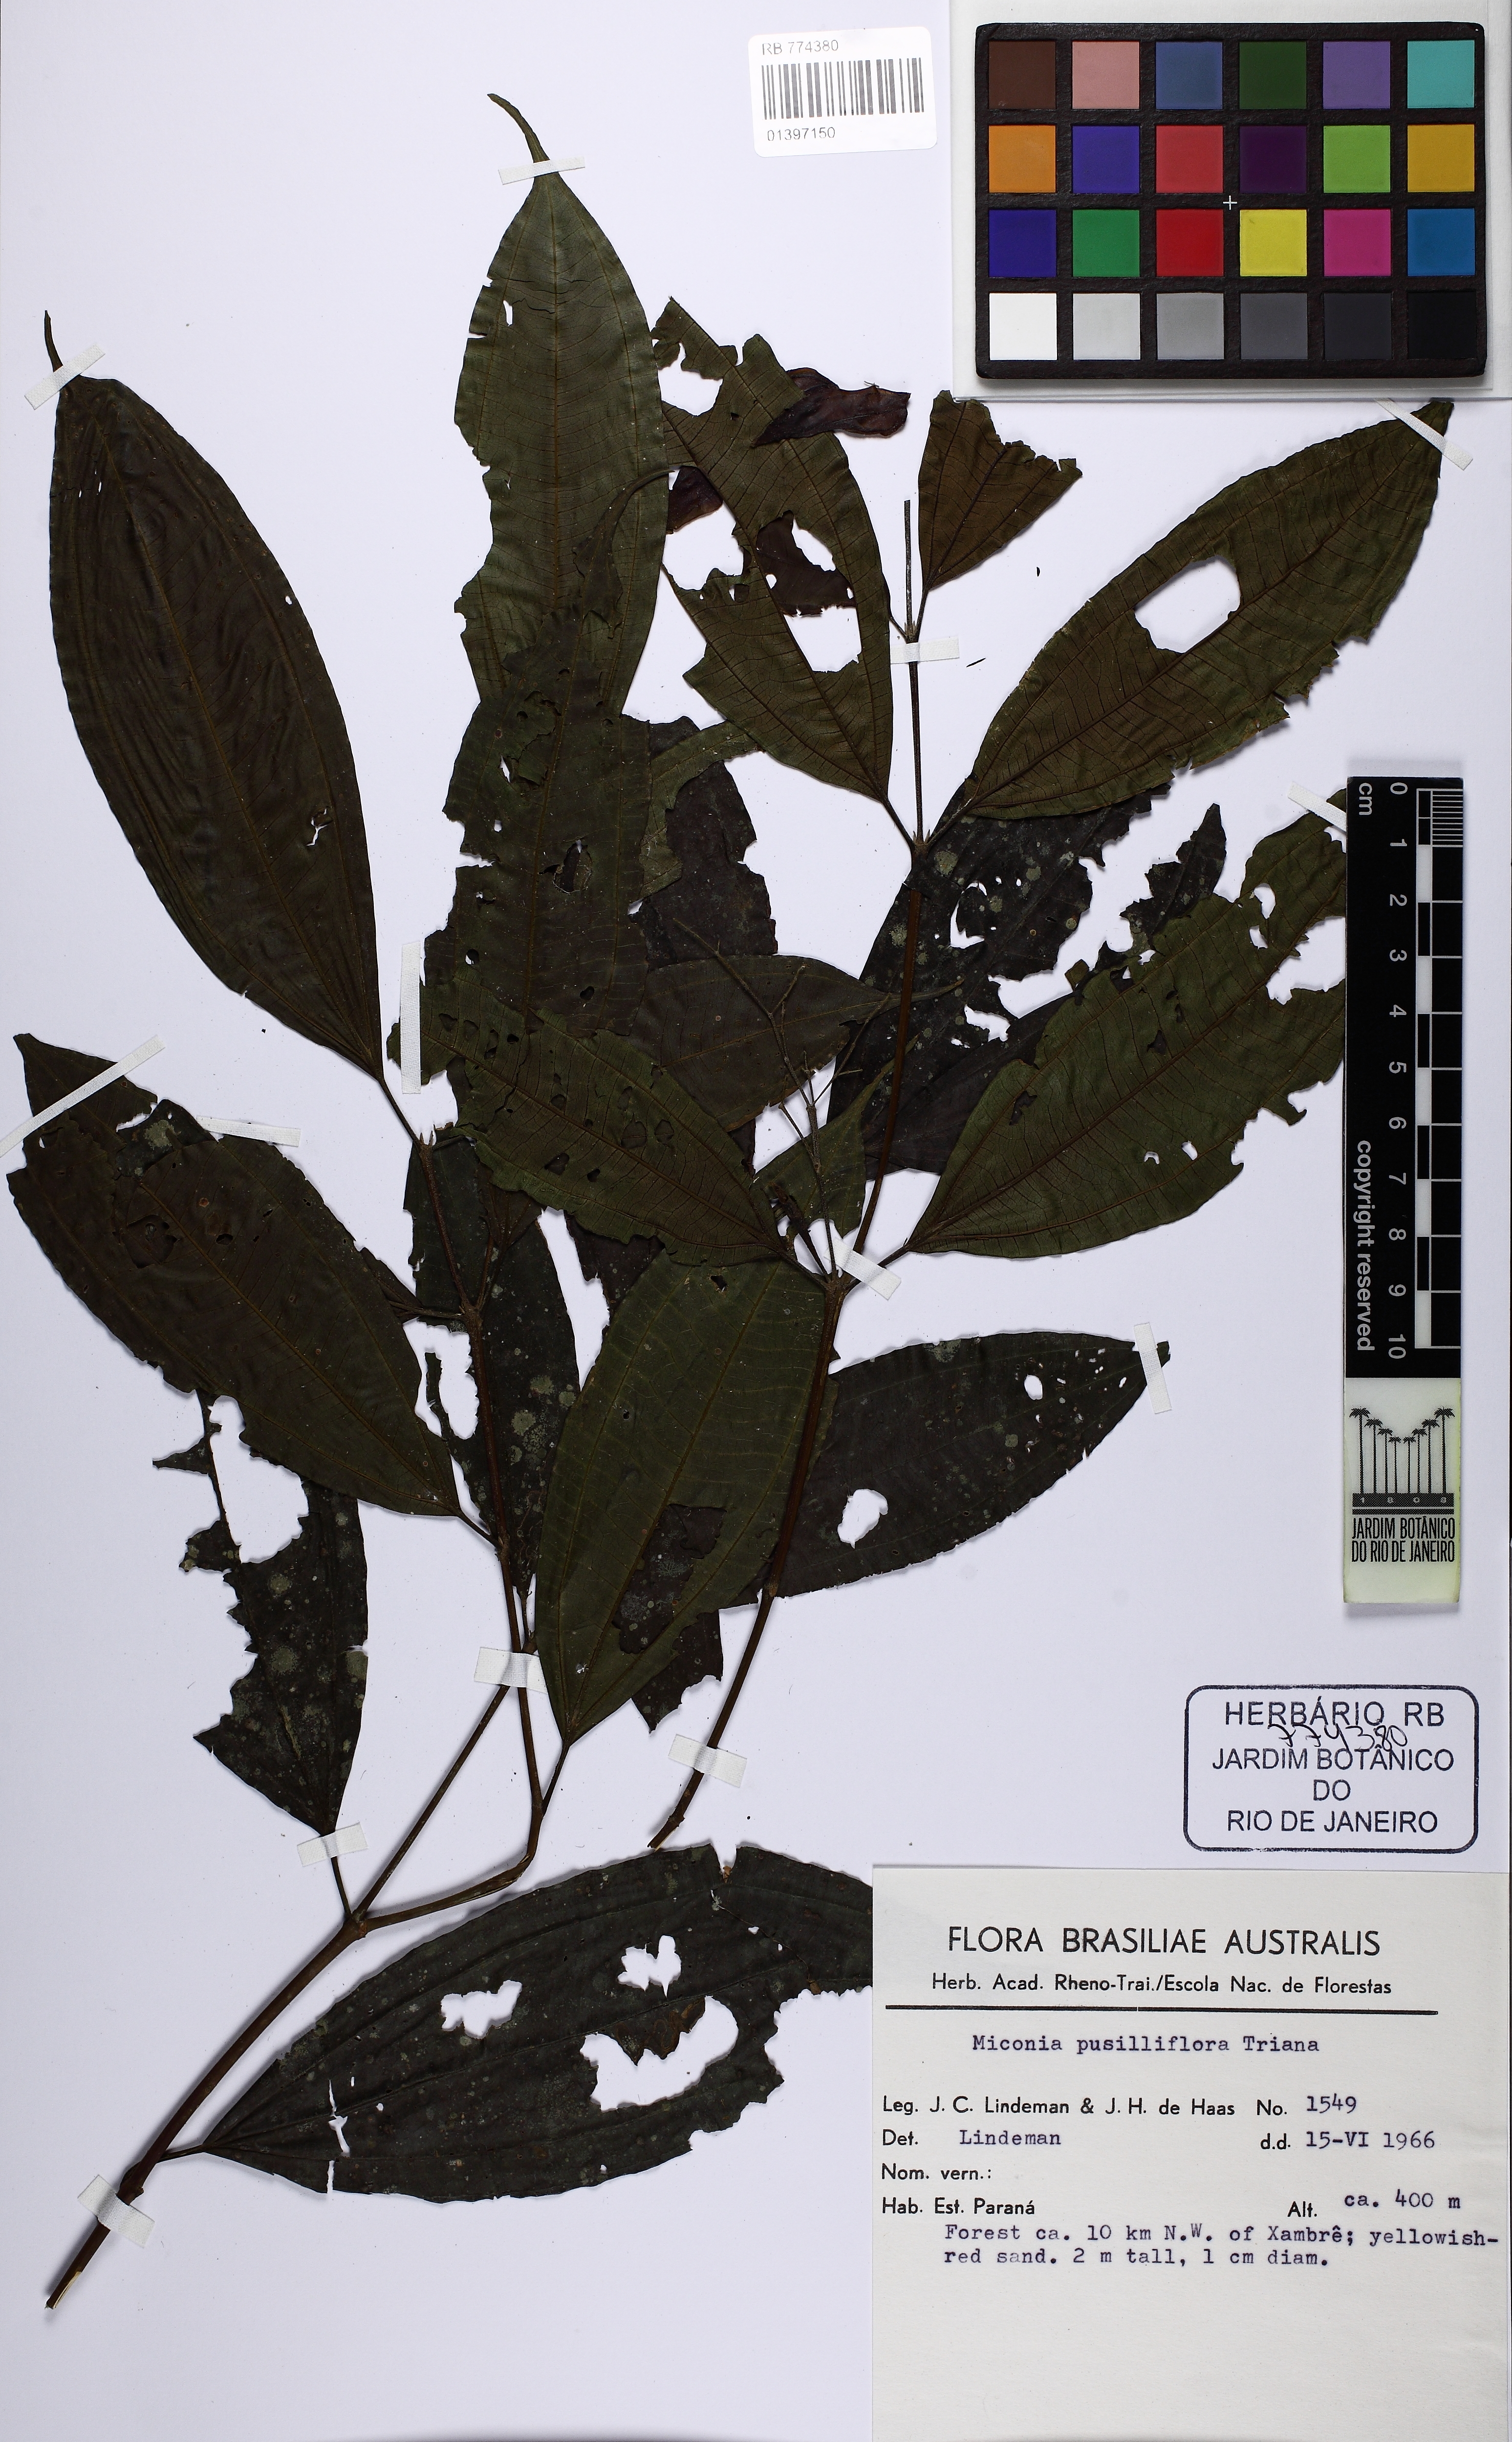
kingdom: Plantae
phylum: Tracheophyta
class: Magnoliopsida
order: Myrtales
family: Melastomataceae
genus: Miconia
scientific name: Miconia pusilliflora
